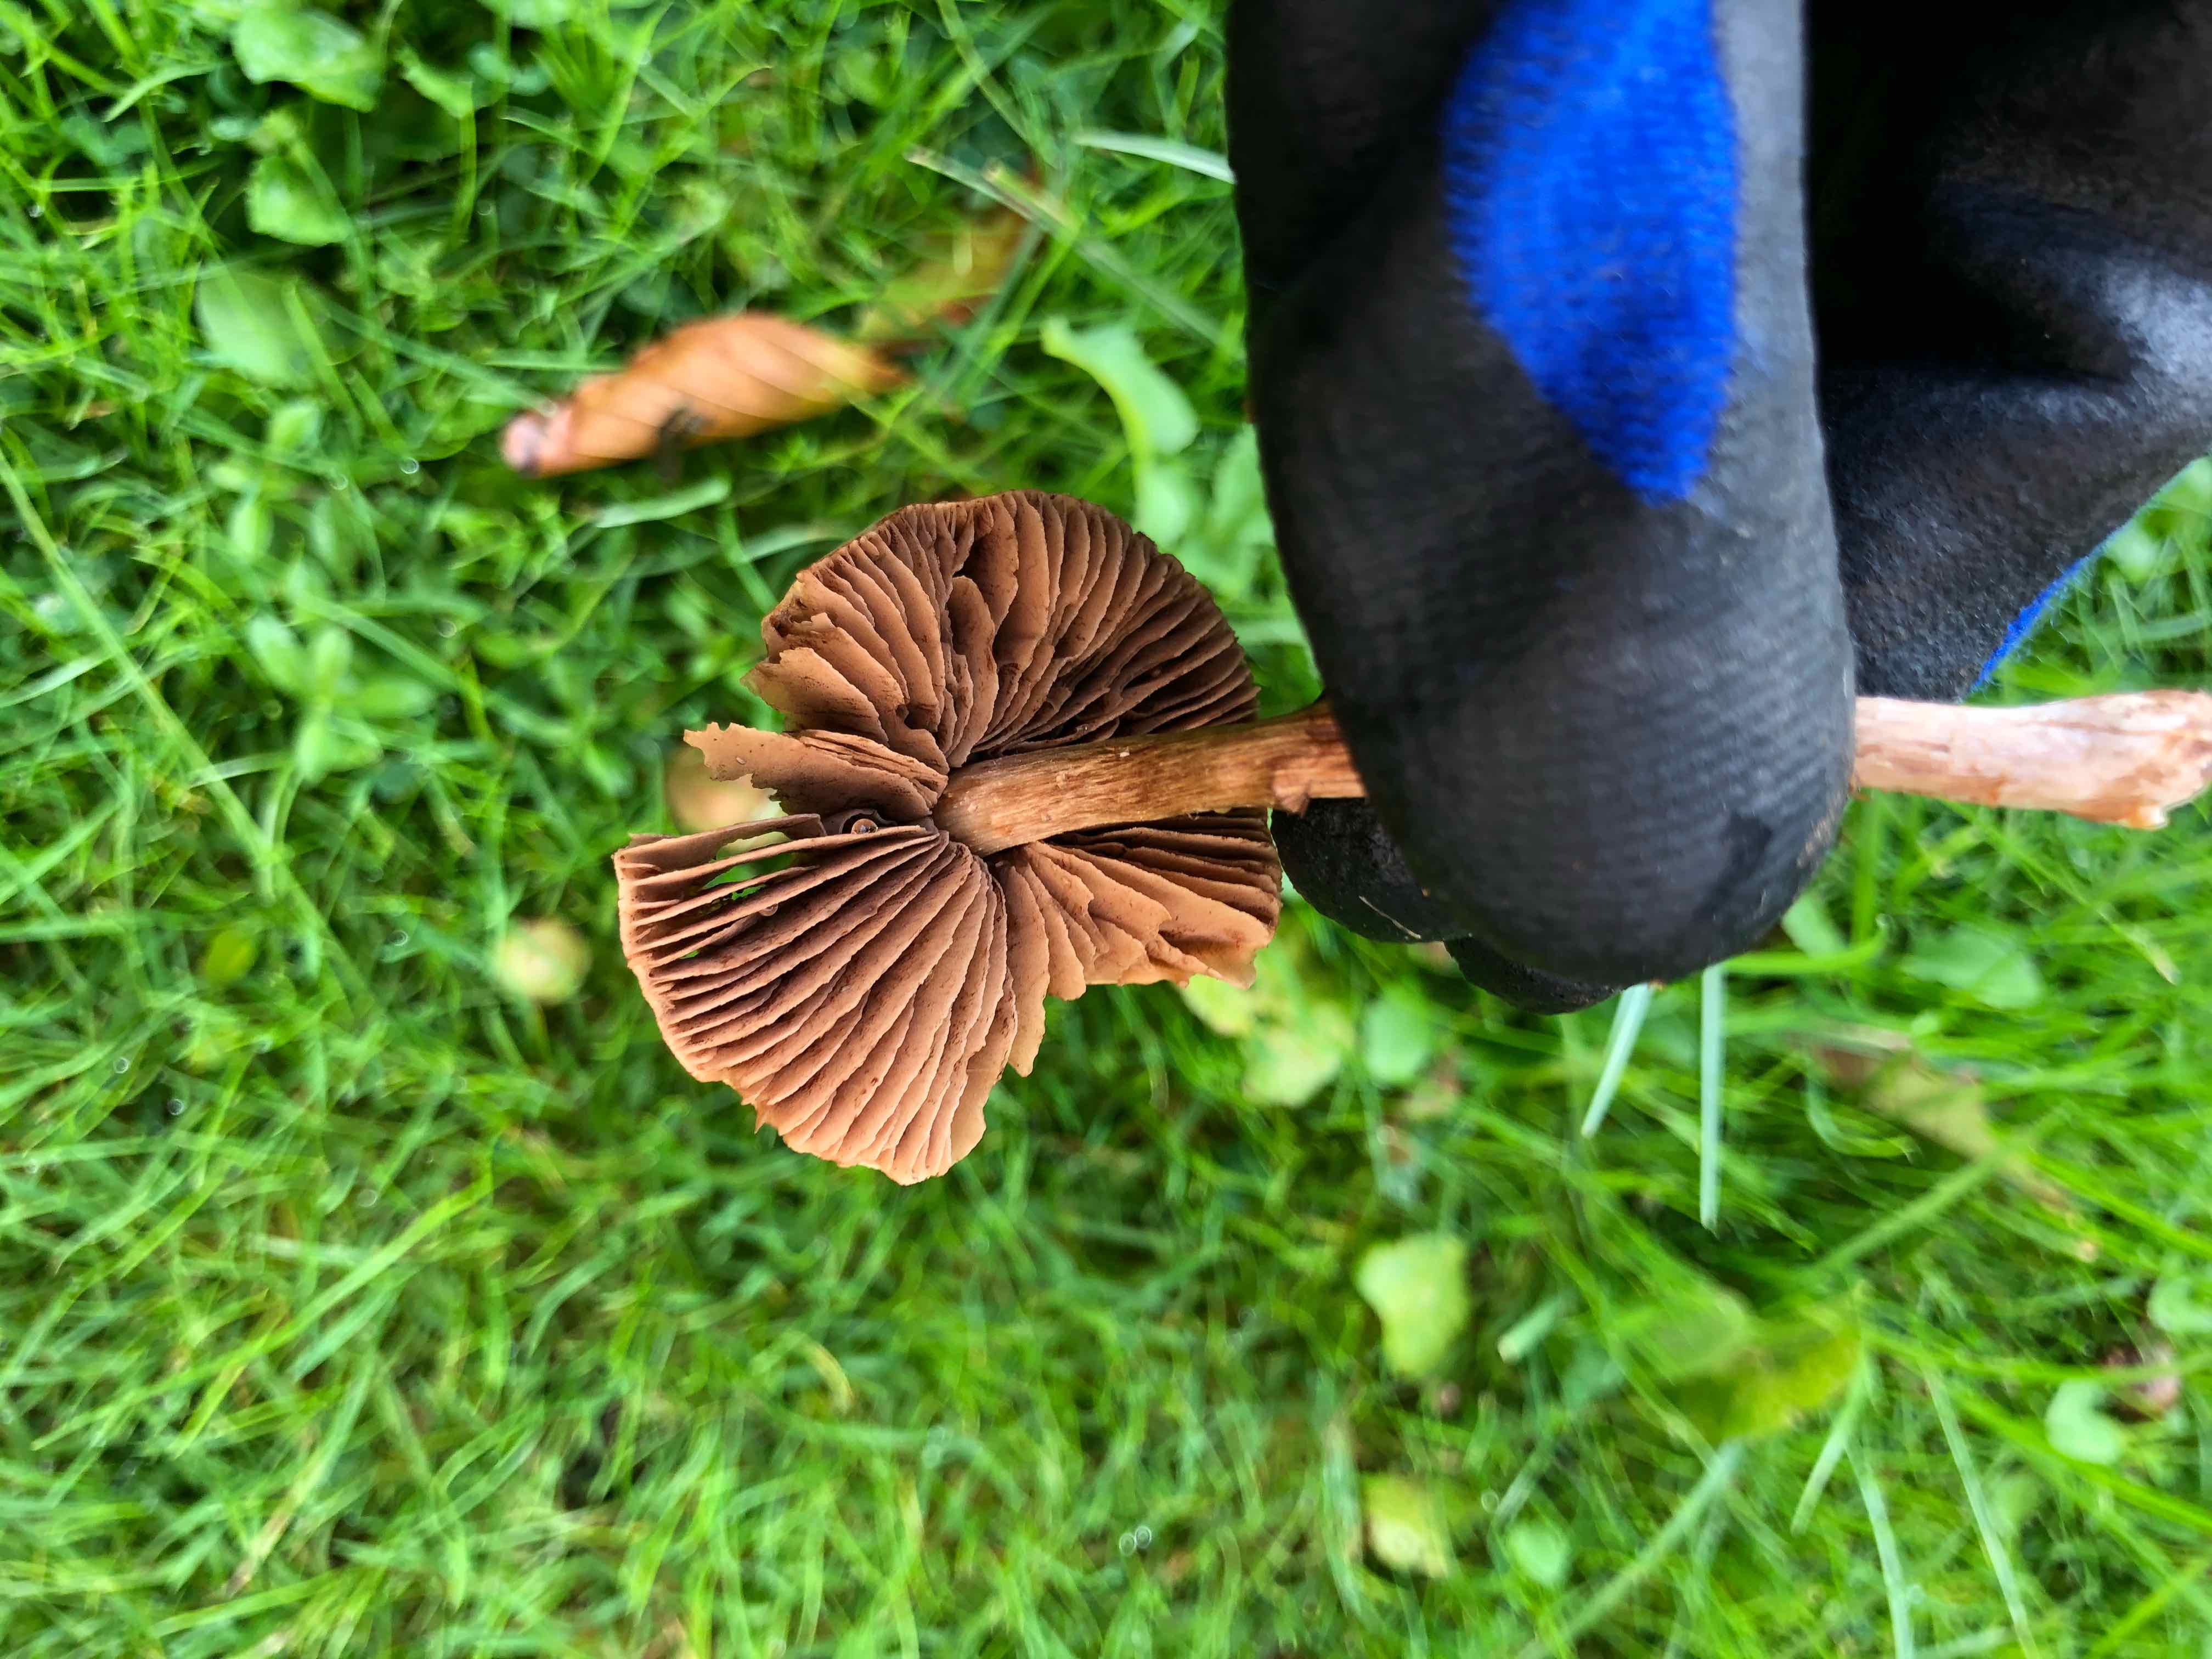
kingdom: Fungi
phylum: Basidiomycota
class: Agaricomycetes
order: Agaricales
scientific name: Agaricales
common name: champignonordenen
